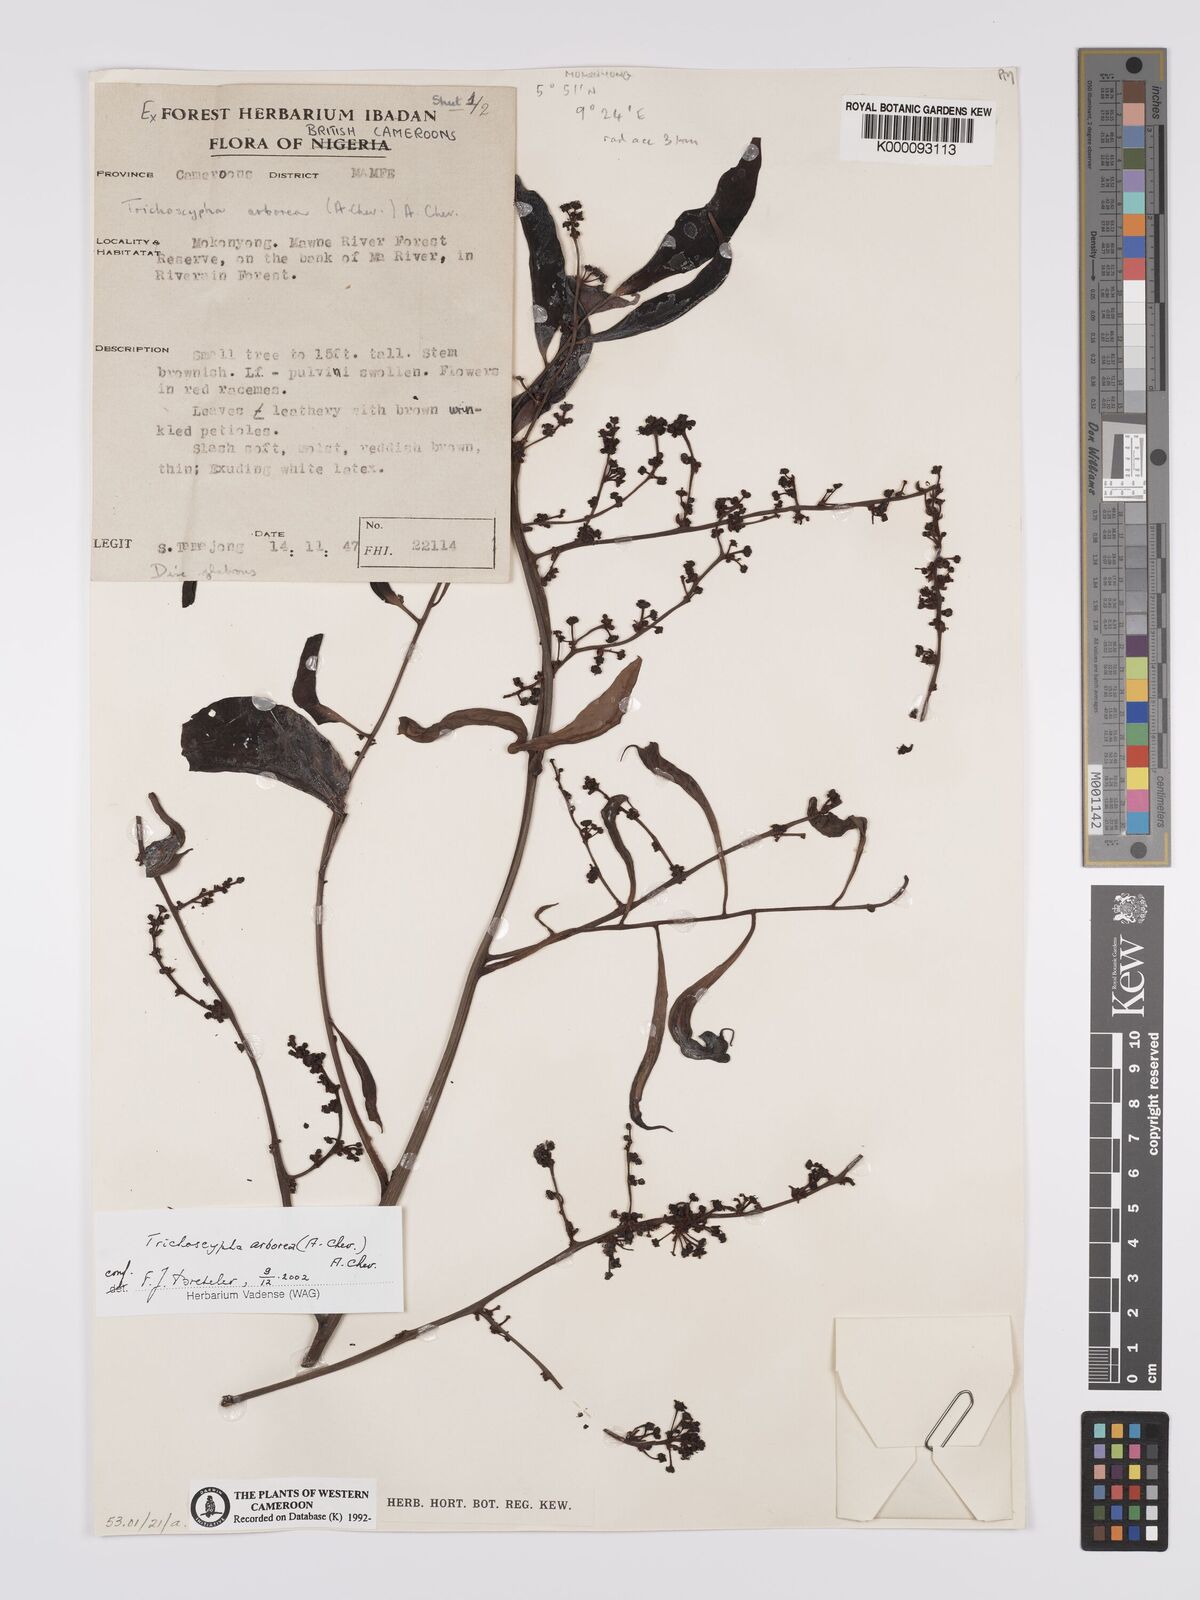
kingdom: Plantae
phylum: Tracheophyta
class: Magnoliopsida
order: Sapindales
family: Anacardiaceae
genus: Trichoscypha
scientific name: Trichoscypha arborea
